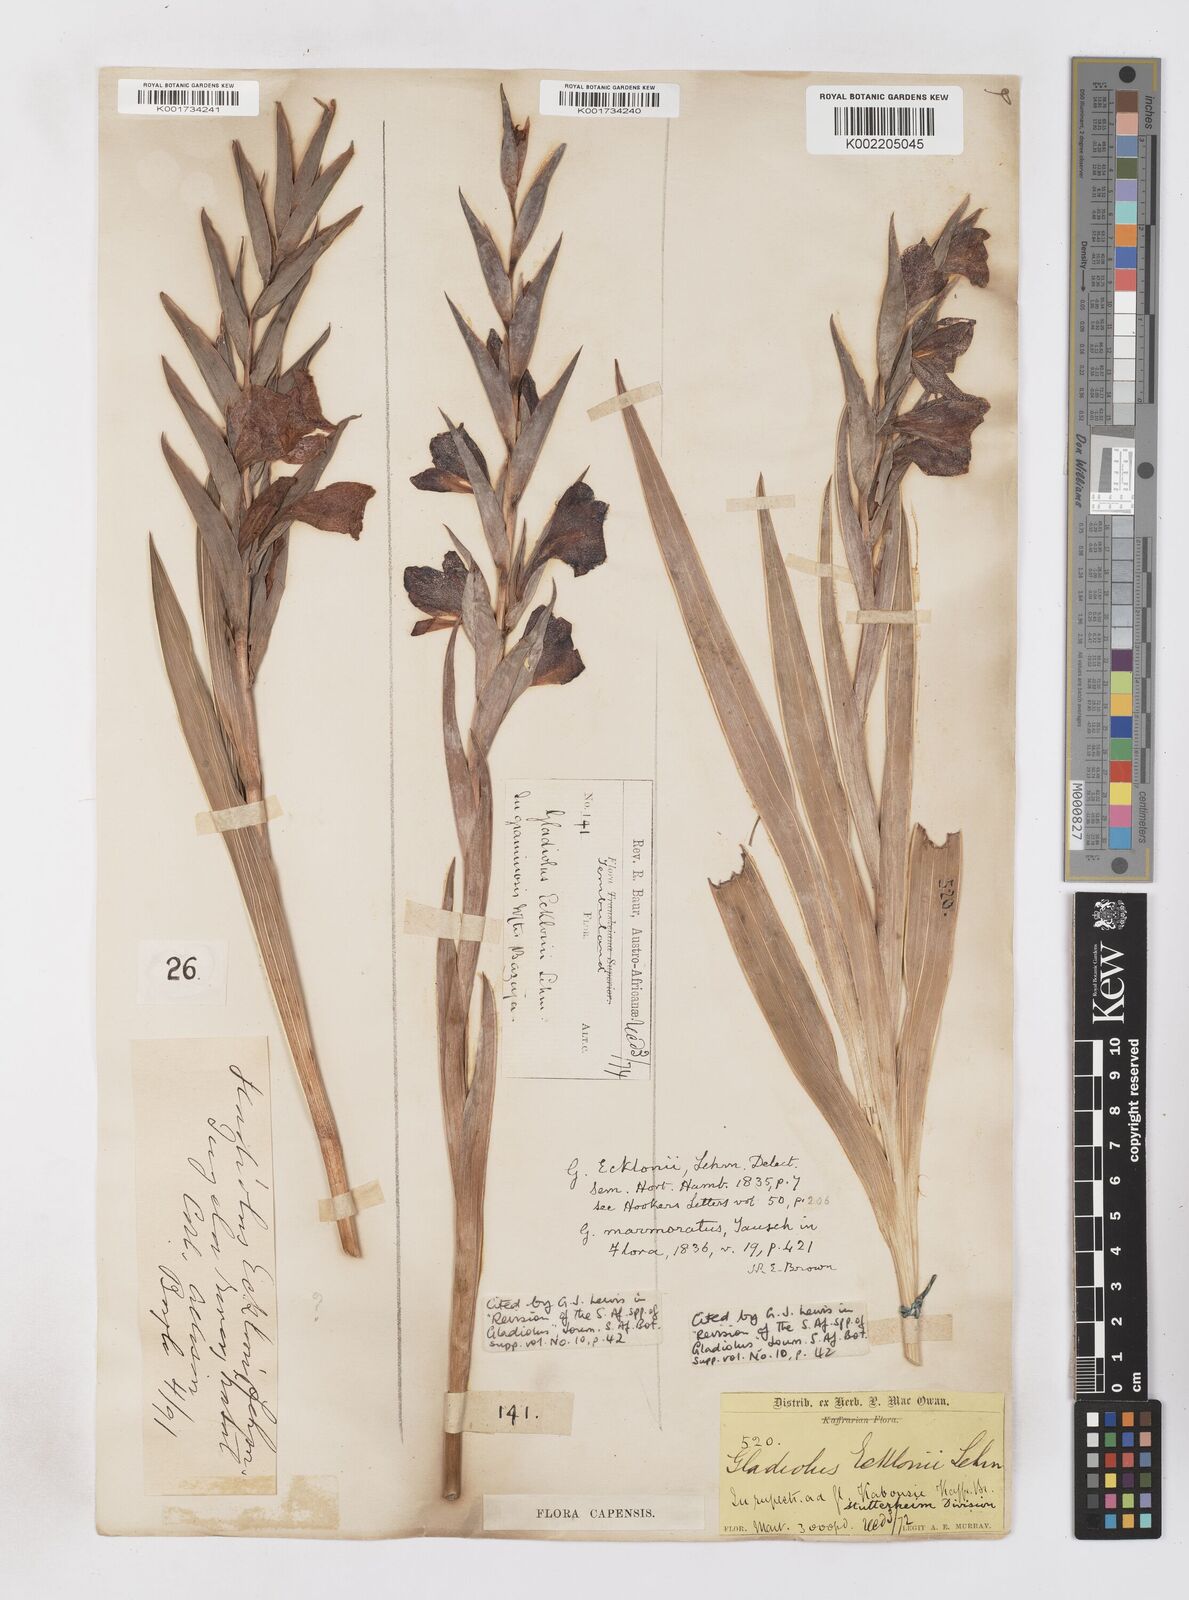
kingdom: Plantae
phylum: Tracheophyta
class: Liliopsida
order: Asparagales
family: Iridaceae
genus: Gladiolus
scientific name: Gladiolus ecklonii
